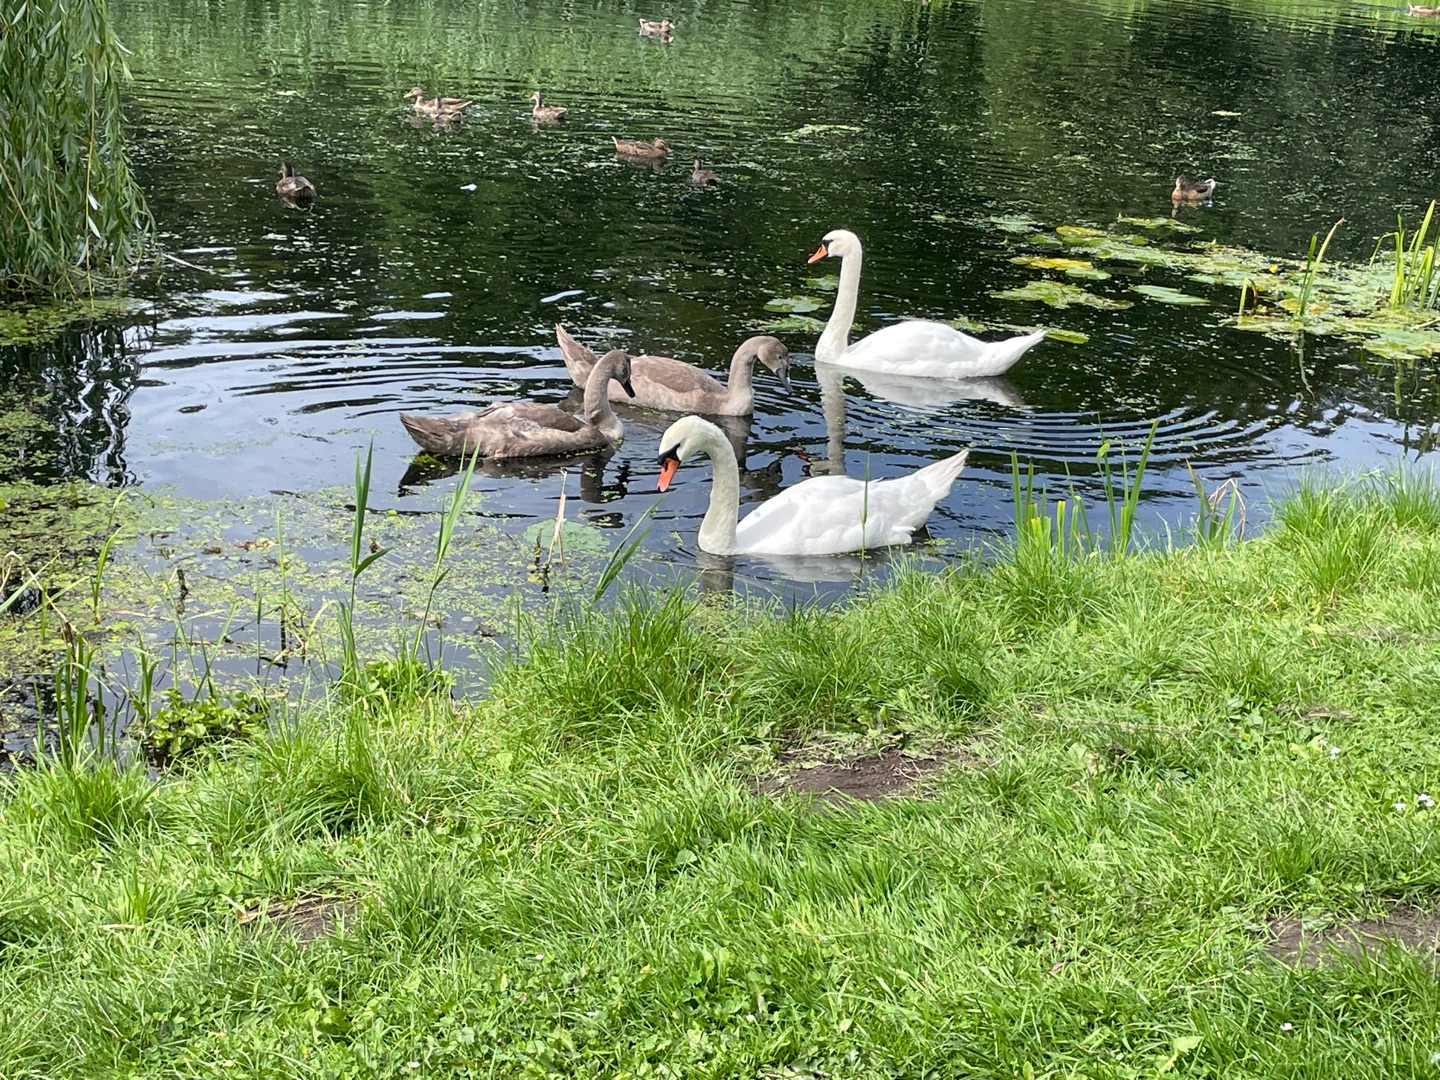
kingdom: Animalia
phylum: Chordata
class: Aves
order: Anseriformes
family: Anatidae
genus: Cygnus
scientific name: Cygnus olor
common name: Knopsvane
